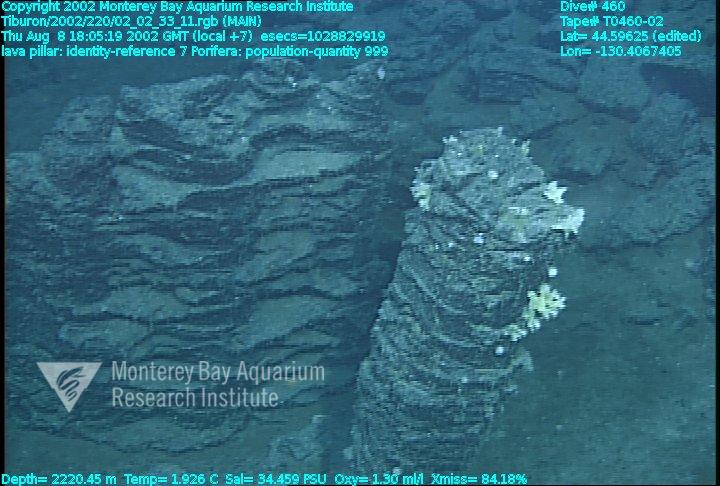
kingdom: Animalia
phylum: Porifera
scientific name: Porifera
